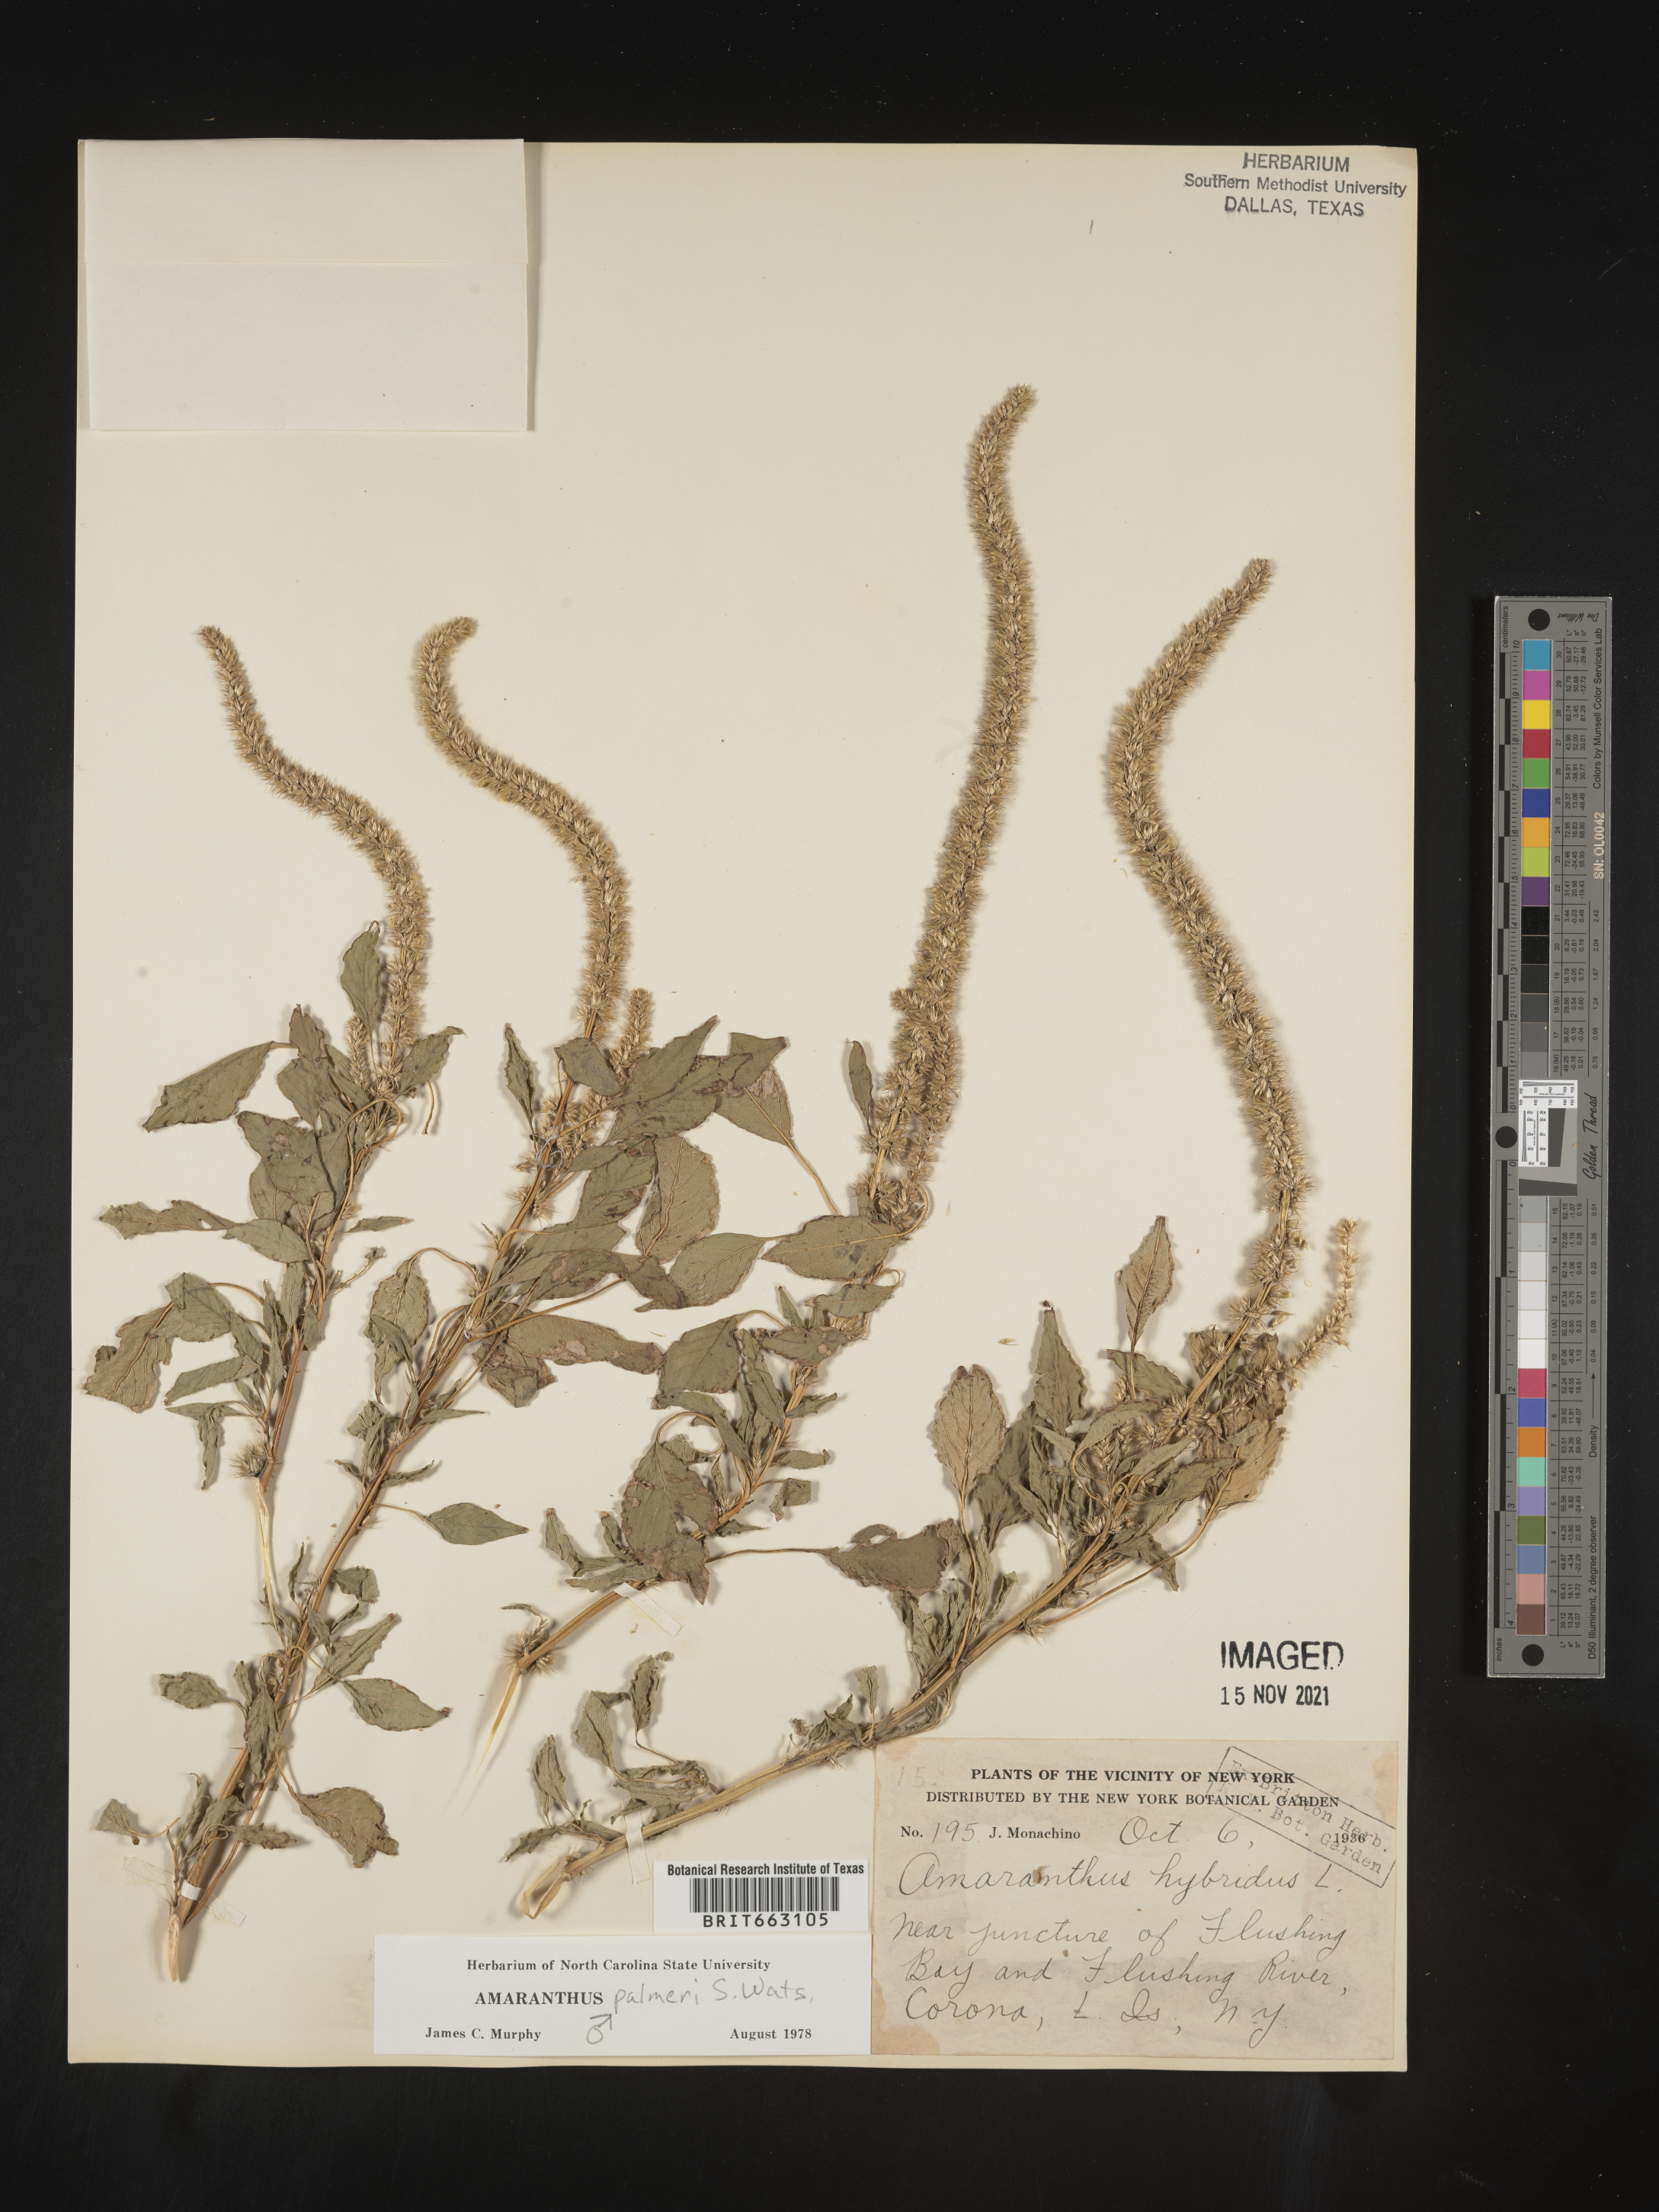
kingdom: Plantae
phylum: Tracheophyta
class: Magnoliopsida
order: Caryophyllales
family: Amaranthaceae
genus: Amaranthus
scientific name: Amaranthus palmeri
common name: Dioecious amaranth
